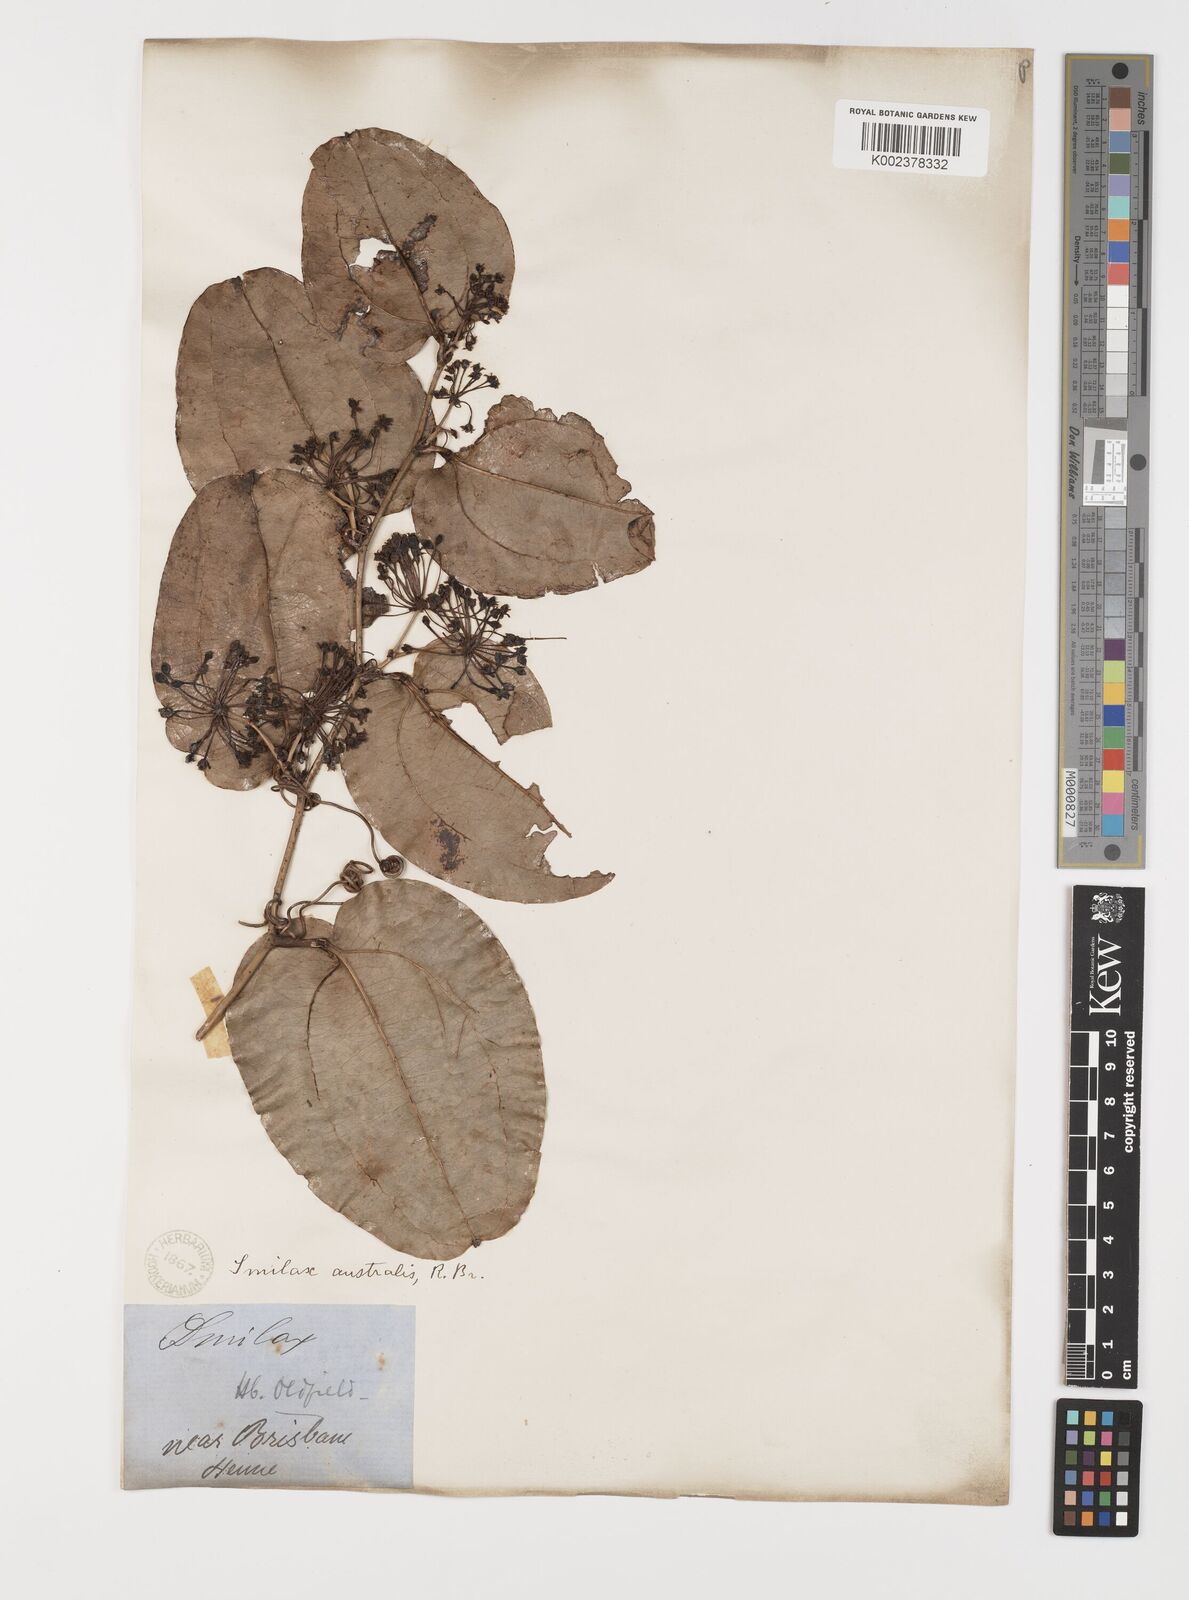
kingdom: Plantae
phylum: Tracheophyta
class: Liliopsida
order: Liliales
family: Smilacaceae
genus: Smilax
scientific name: Smilax australis
